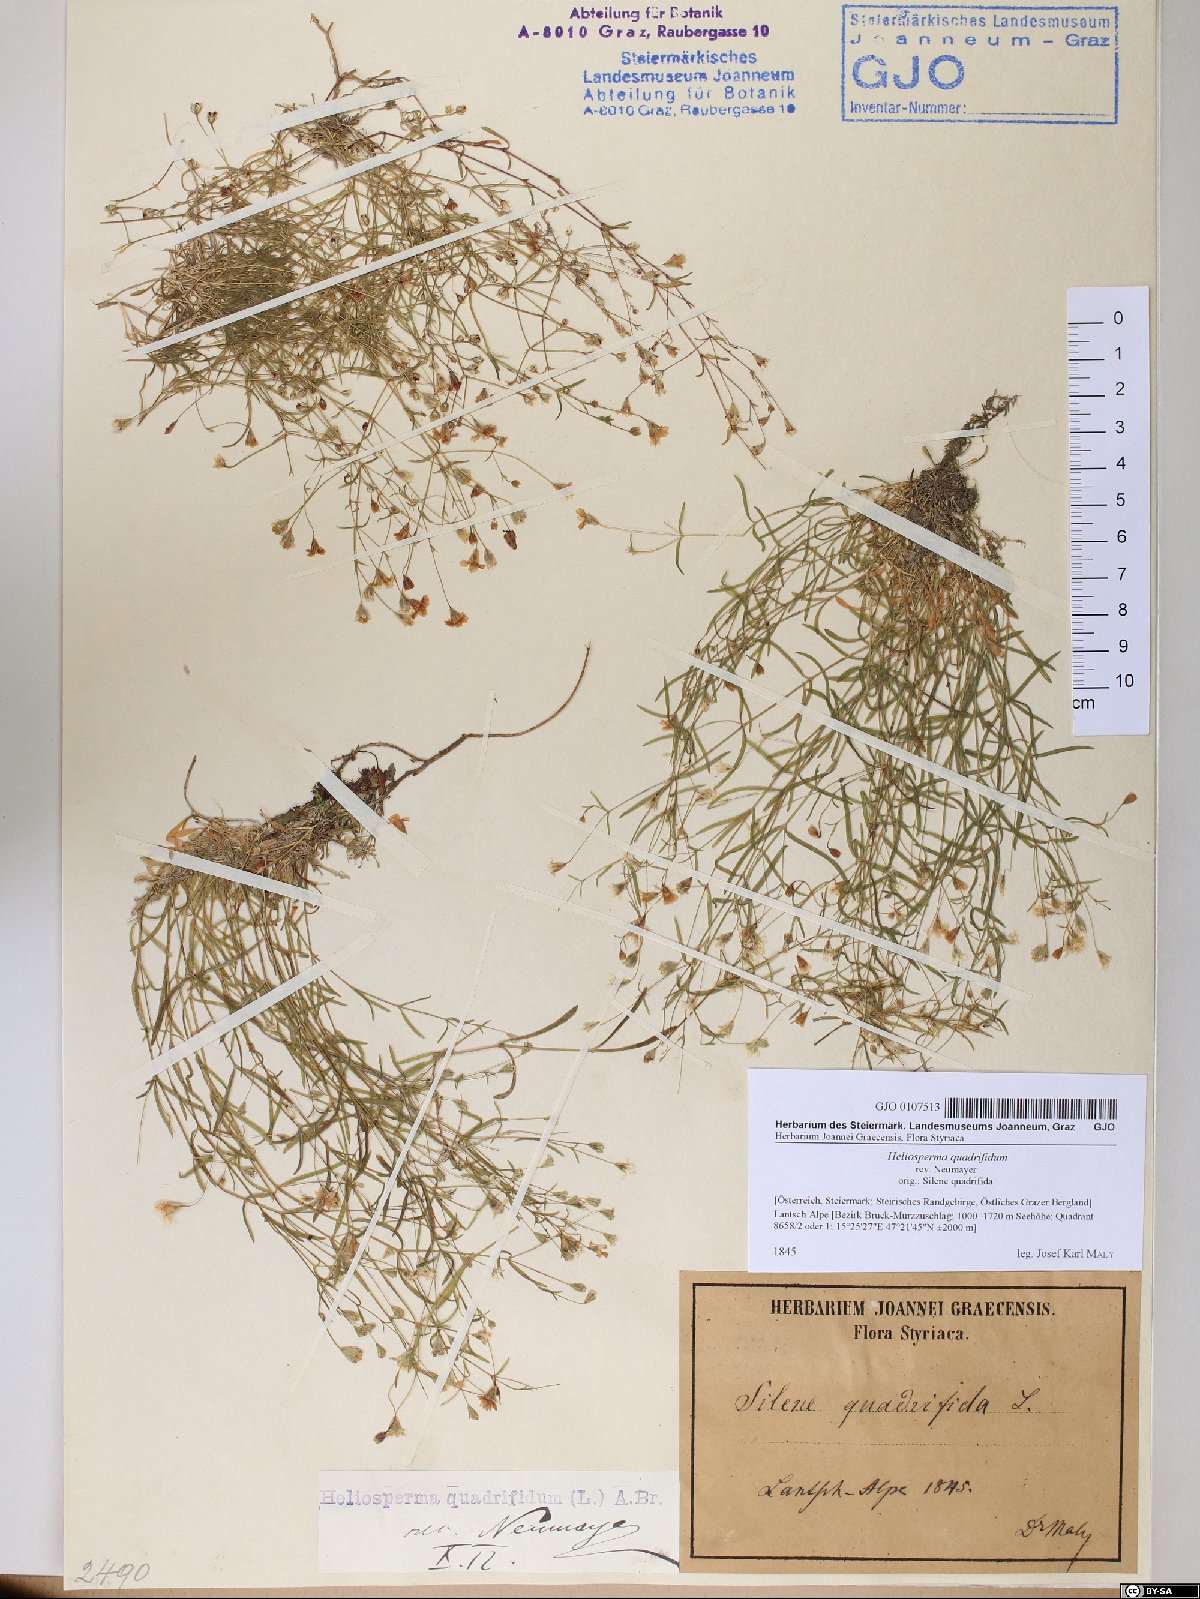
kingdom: Plantae
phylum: Tracheophyta
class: Magnoliopsida
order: Caryophyllales
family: Caryophyllaceae
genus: Heliosperma
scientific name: Heliosperma alpestre
